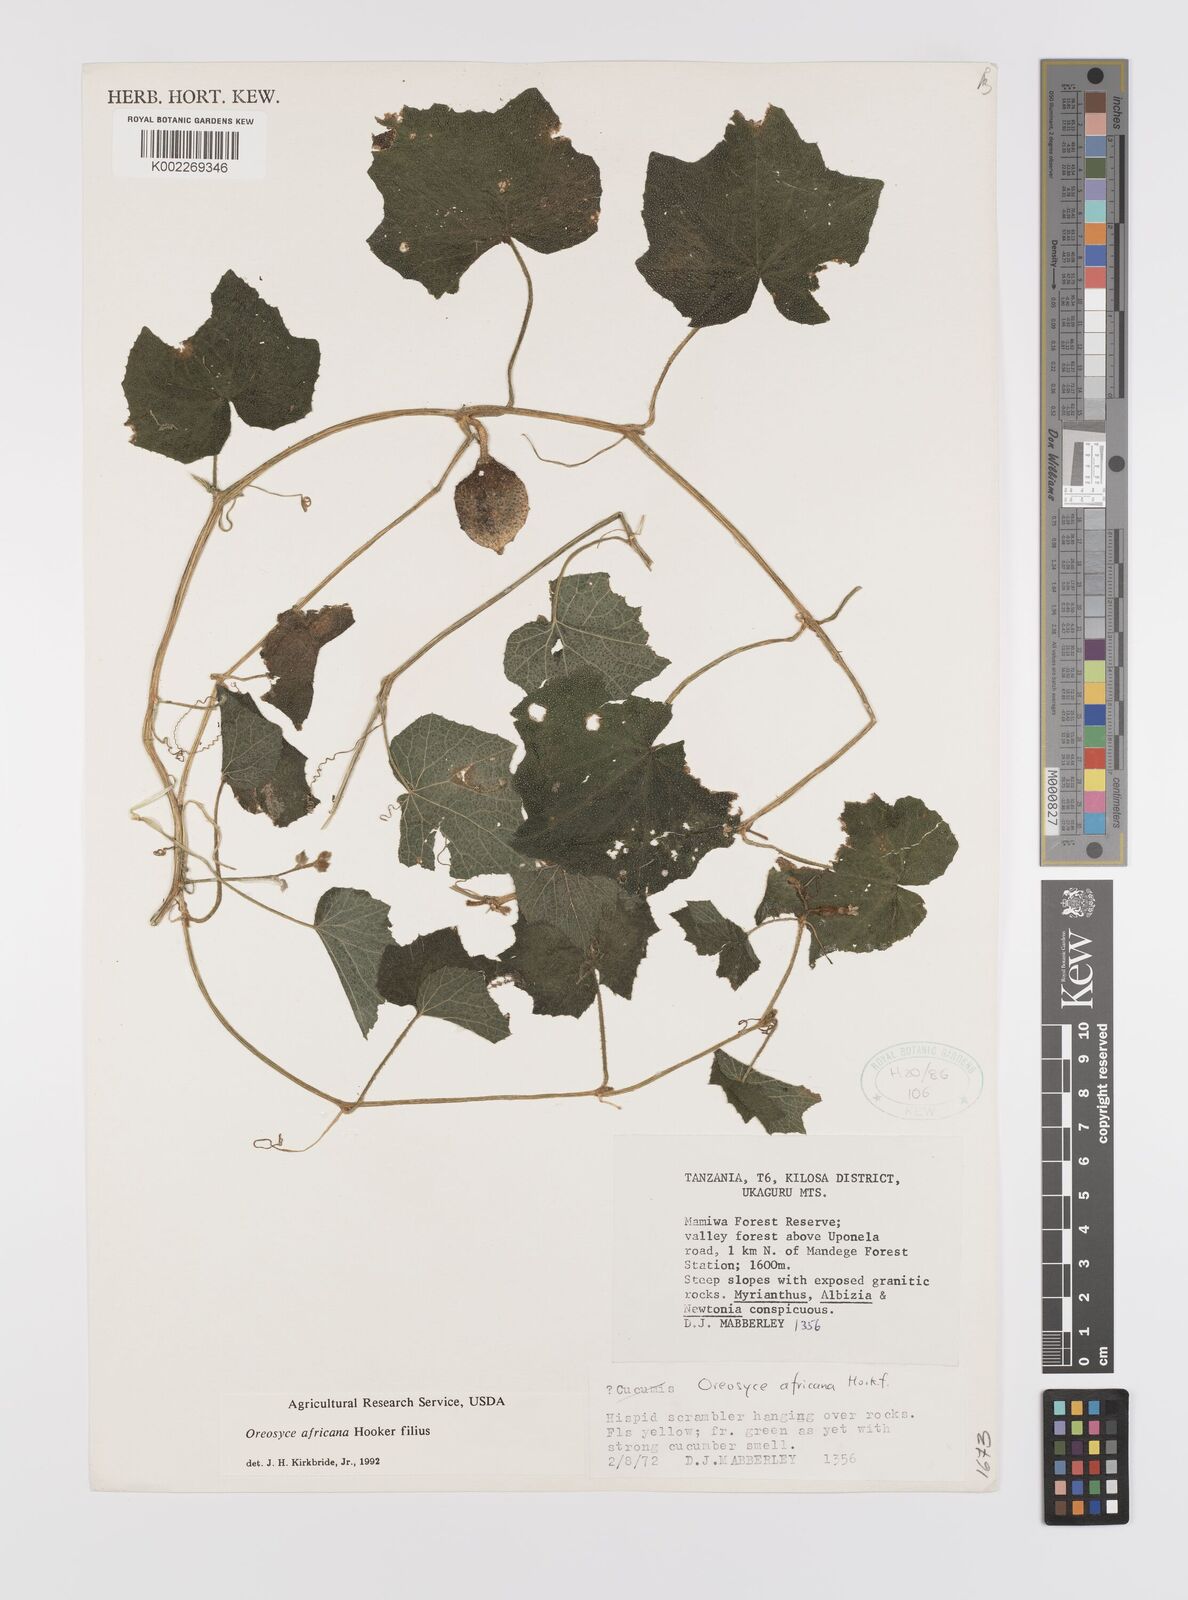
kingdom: Plantae
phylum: Tracheophyta
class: Magnoliopsida
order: Cucurbitales
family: Cucurbitaceae
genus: Cucumis
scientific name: Cucumis oreosyce
